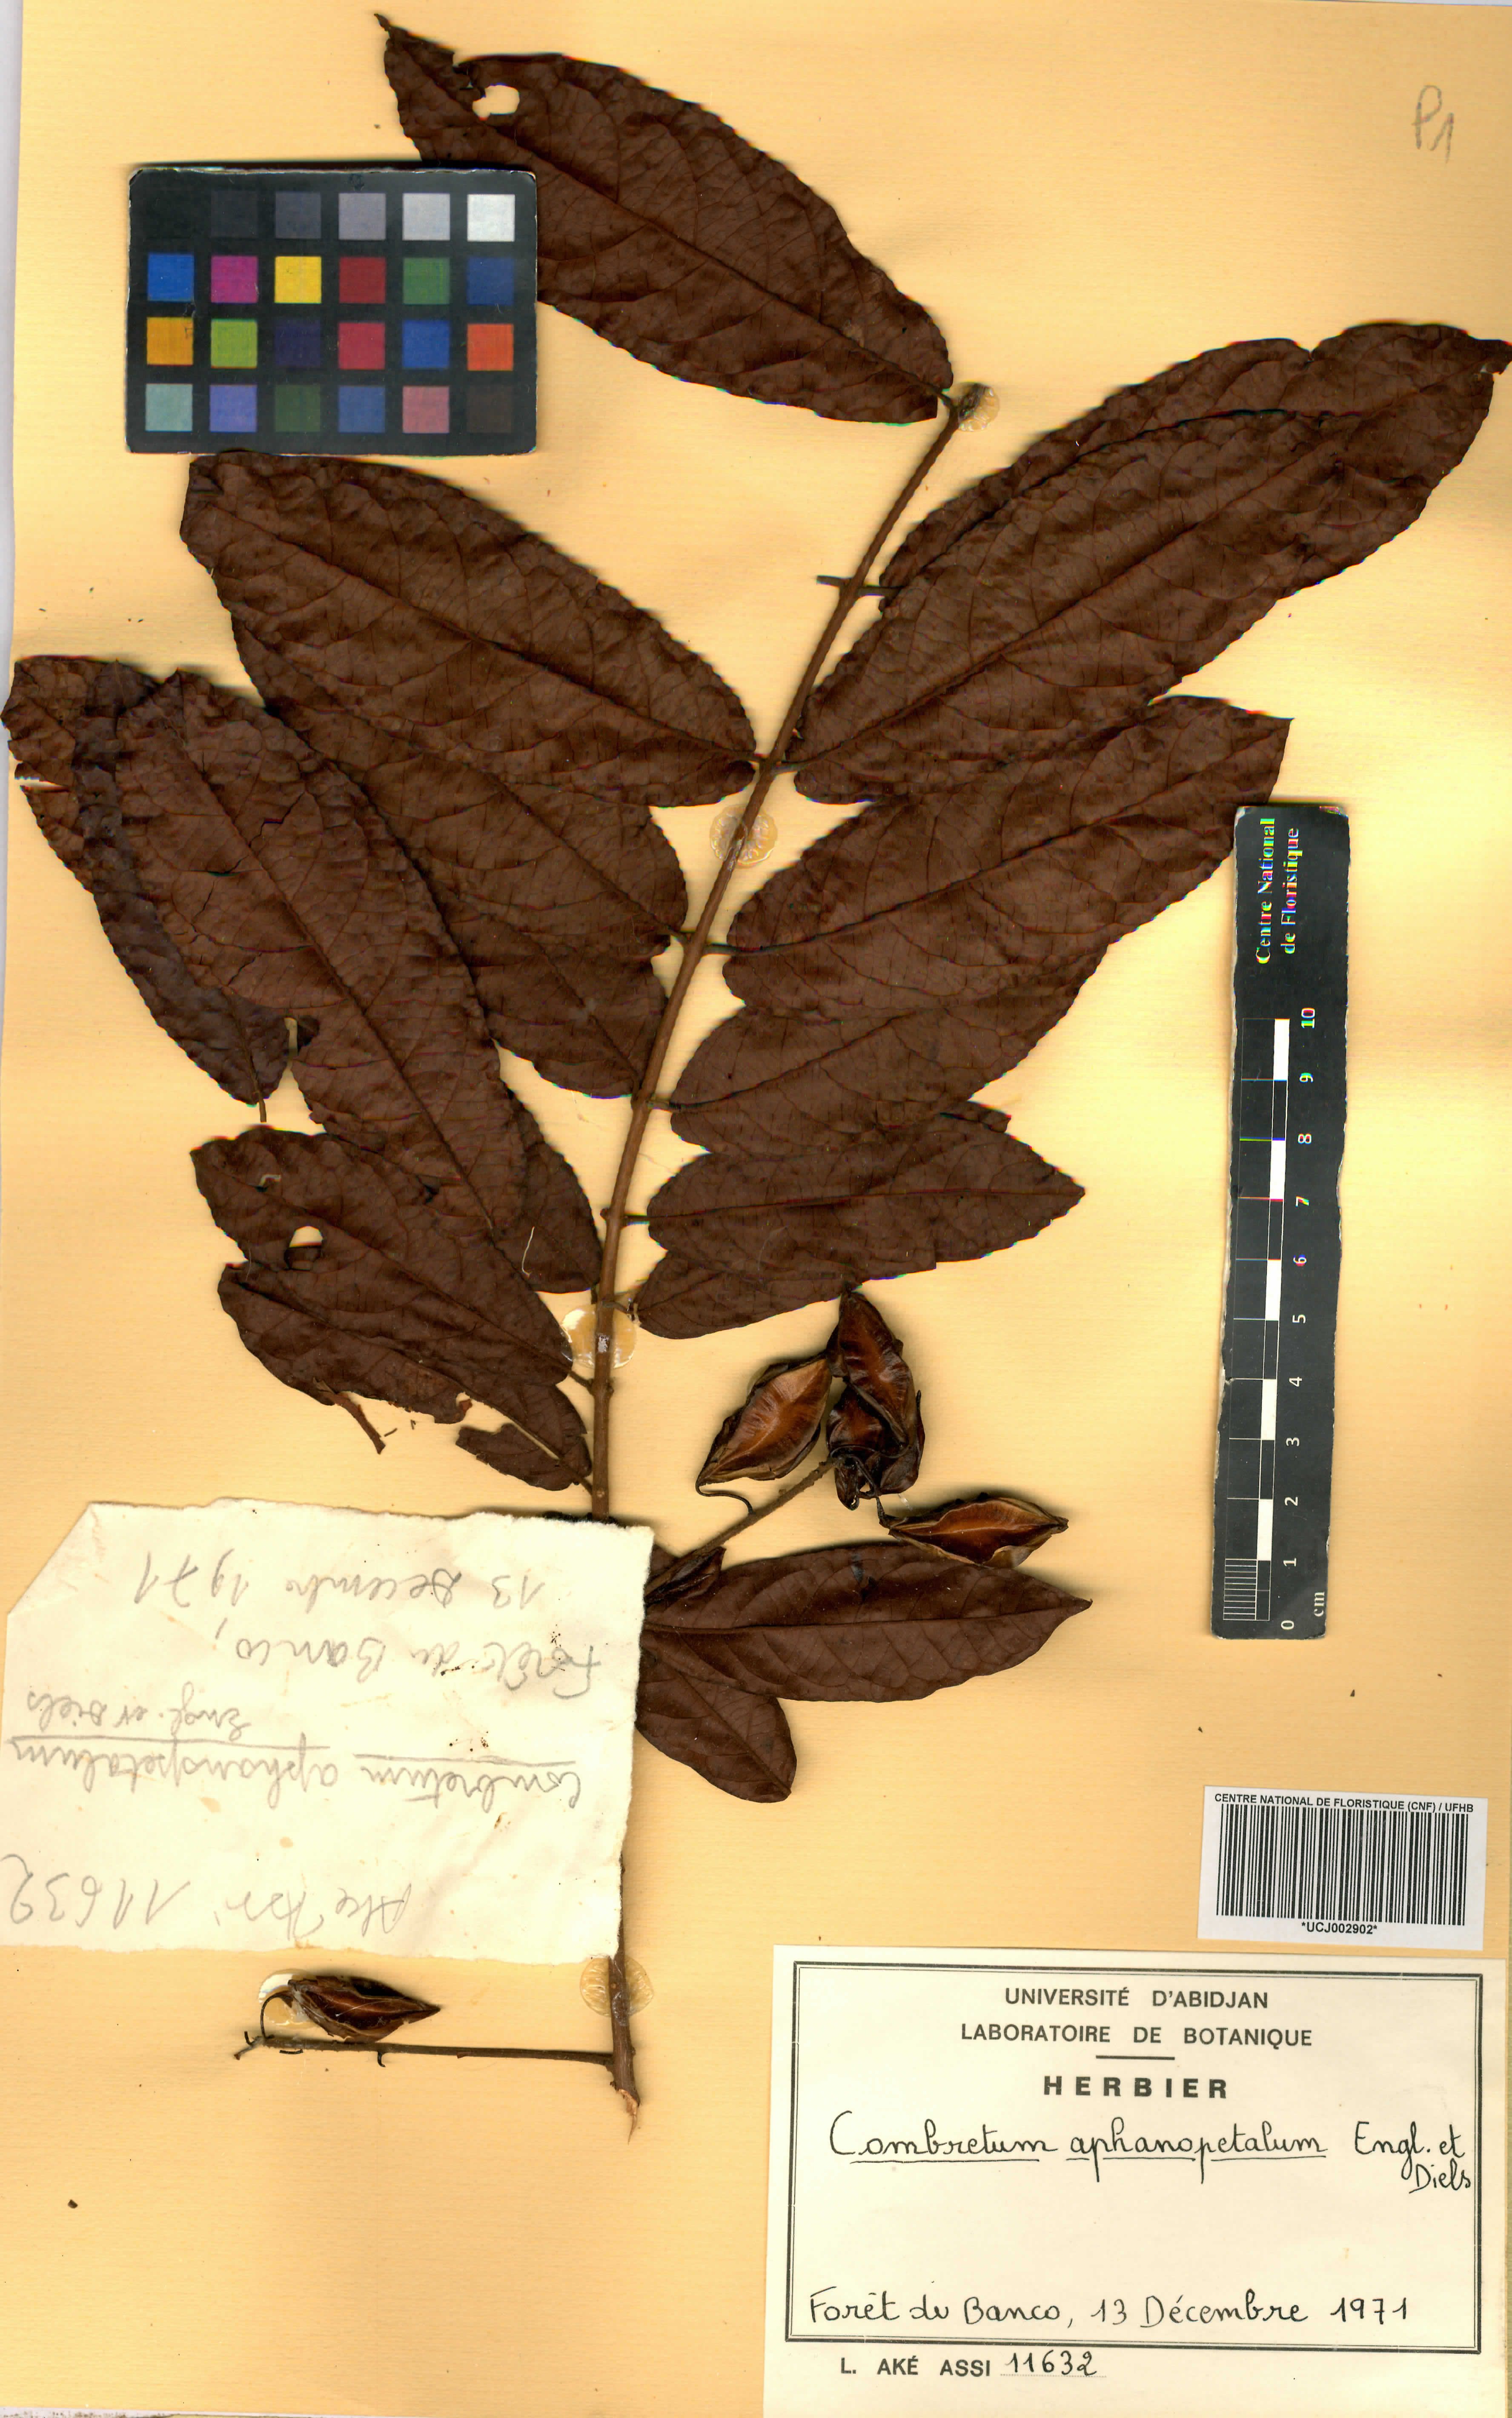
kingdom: Plantae
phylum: Tracheophyta
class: Magnoliopsida
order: Myrtales
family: Combretaceae
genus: Combretum
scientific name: Combretum adenogonium
